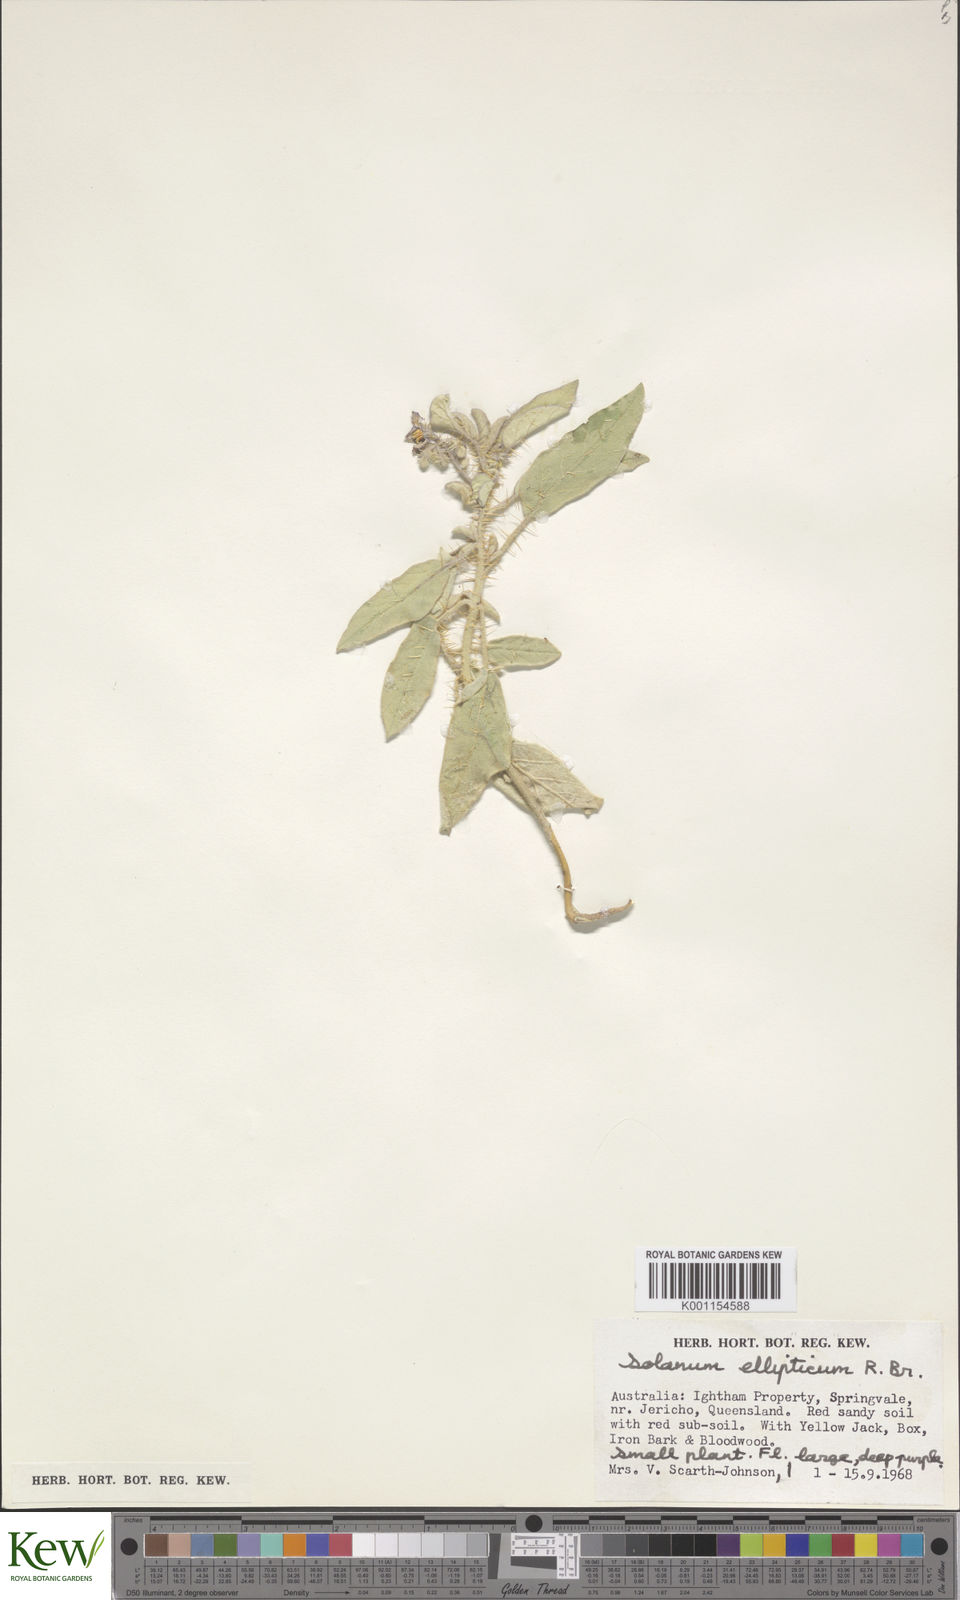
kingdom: Plantae
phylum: Tracheophyta
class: Magnoliopsida
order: Solanales
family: Solanaceae
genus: Solanum
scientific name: Solanum ellipticum
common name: Potato-bush
